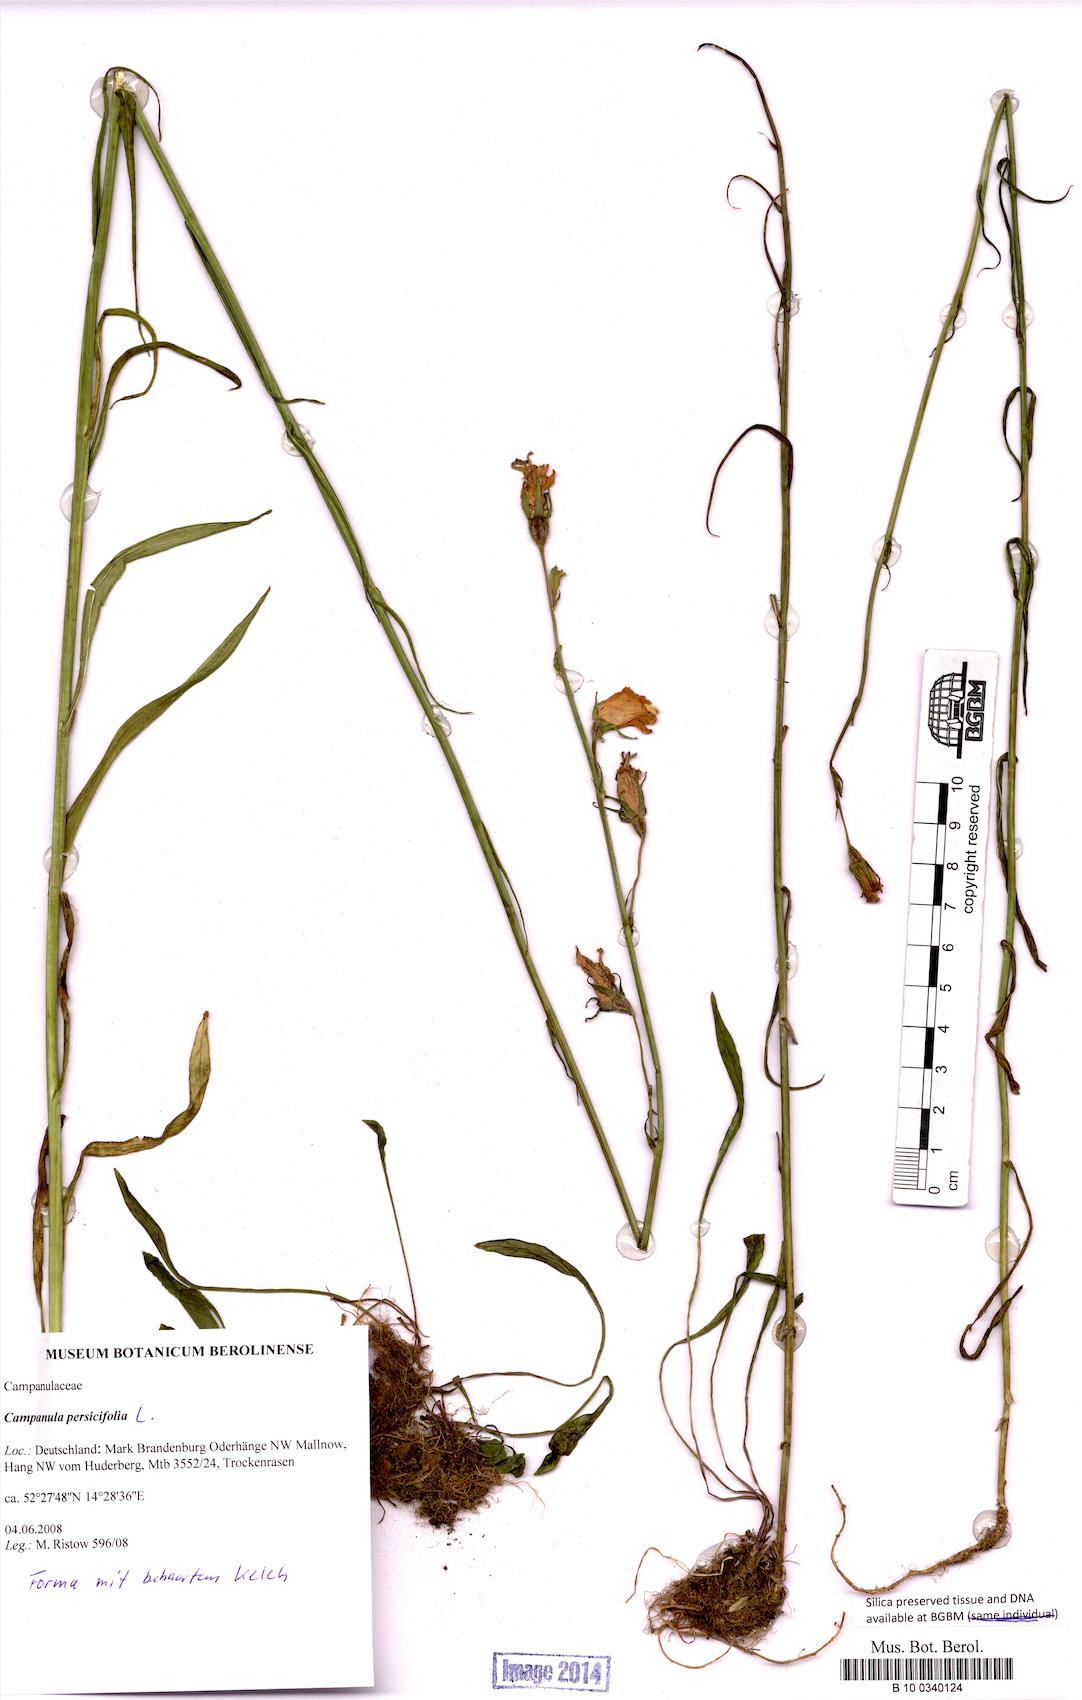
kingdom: Plantae
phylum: Tracheophyta
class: Magnoliopsida
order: Asterales
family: Campanulaceae
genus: Campanula
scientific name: Campanula persicifolia
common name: Peach-leaved bellflower
